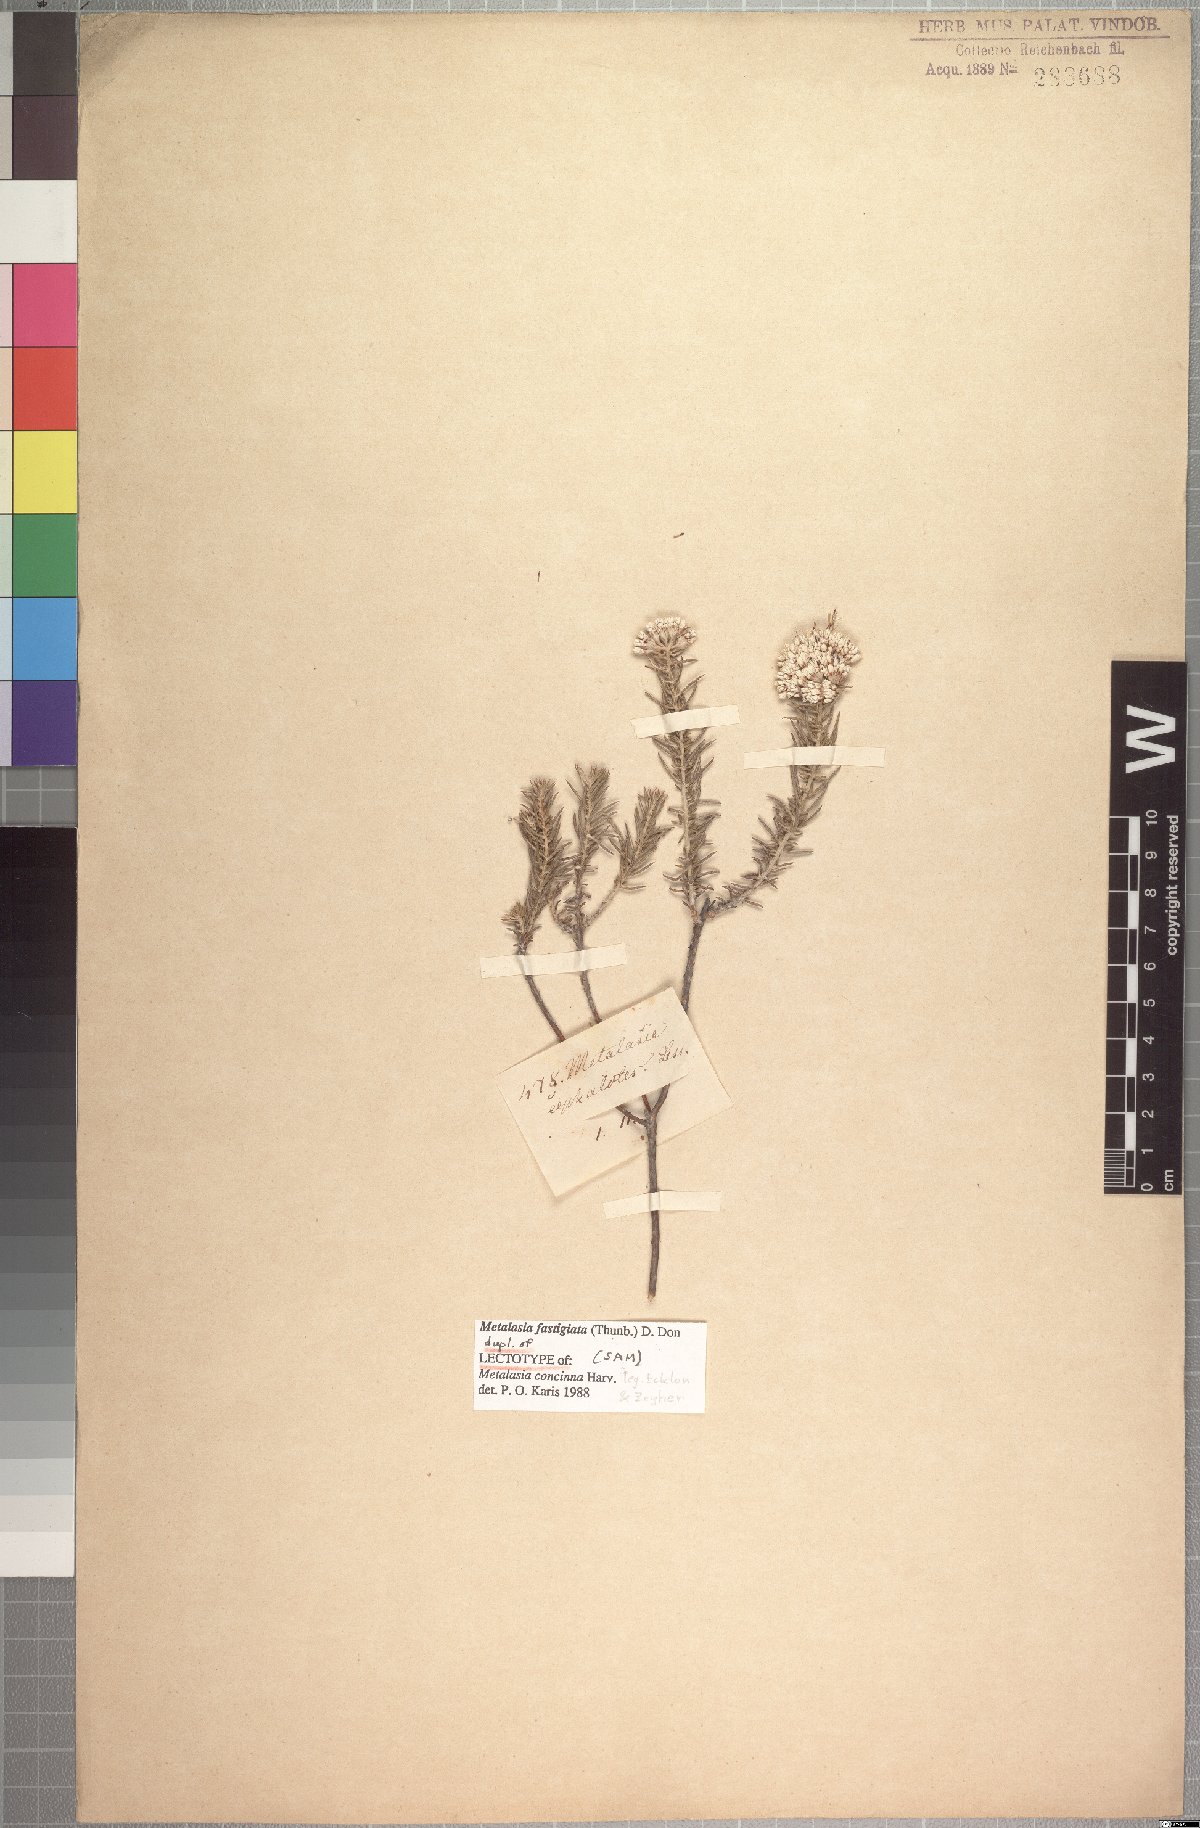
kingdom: Plantae
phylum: Tracheophyta
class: Magnoliopsida
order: Asterales
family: Asteraceae
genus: Metalasia
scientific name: Metalasia fastigiata
